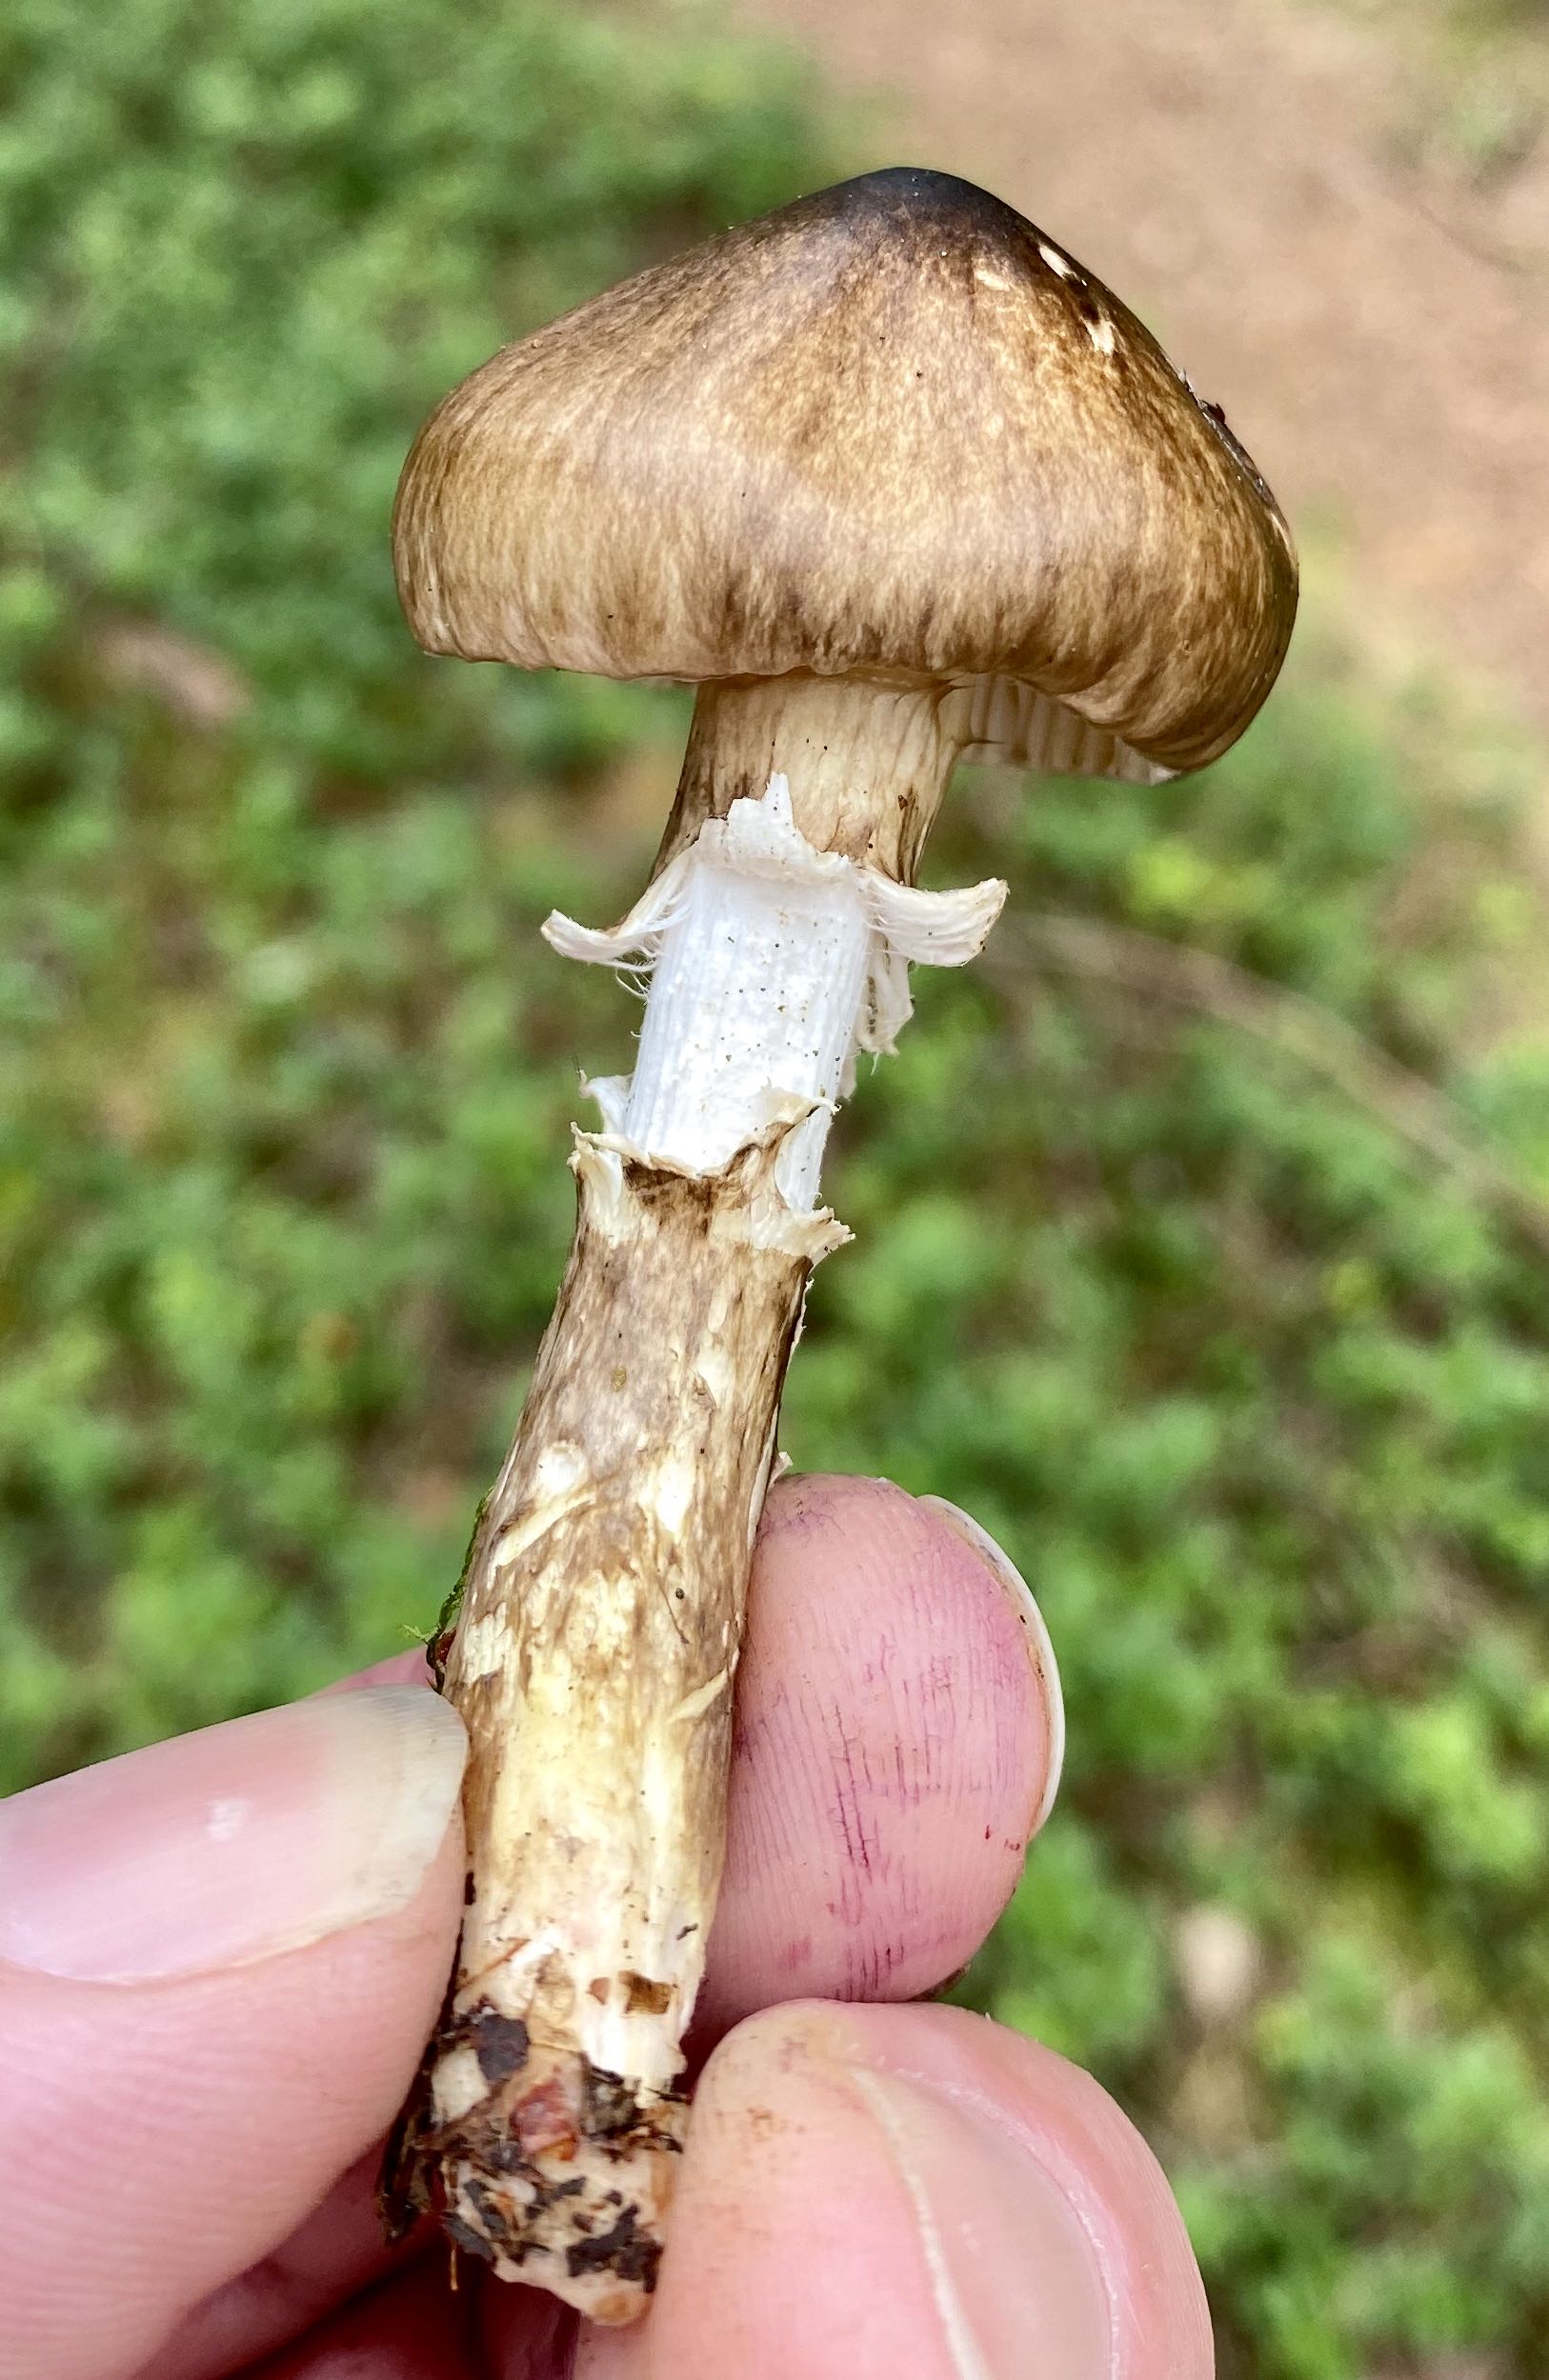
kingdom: Fungi
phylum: Basidiomycota
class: Agaricomycetes
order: Agaricales
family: Hygrophoraceae
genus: Hygrophorus
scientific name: Hygrophorus olivaceoalbus
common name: hvidbrun sneglehat
